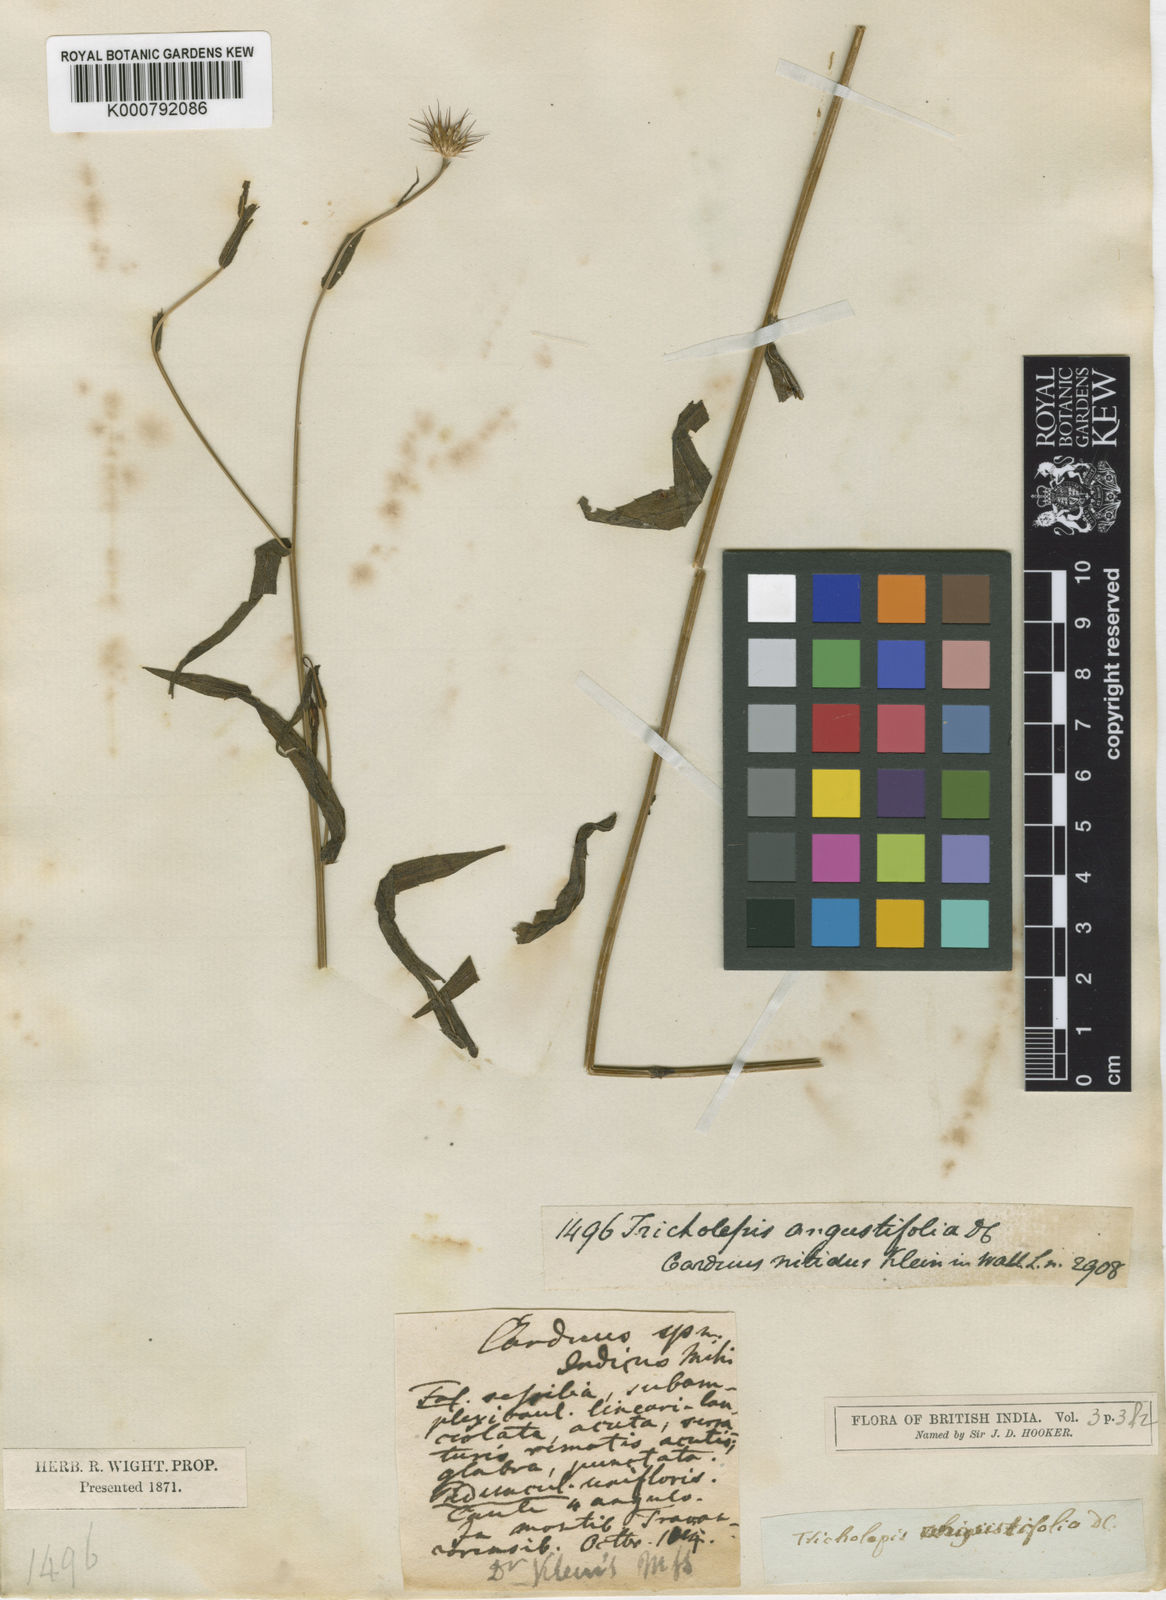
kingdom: Plantae
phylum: Tracheophyta
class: Magnoliopsida
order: Asterales
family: Asteraceae
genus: Tricholepis
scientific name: Tricholepis angustifolia
